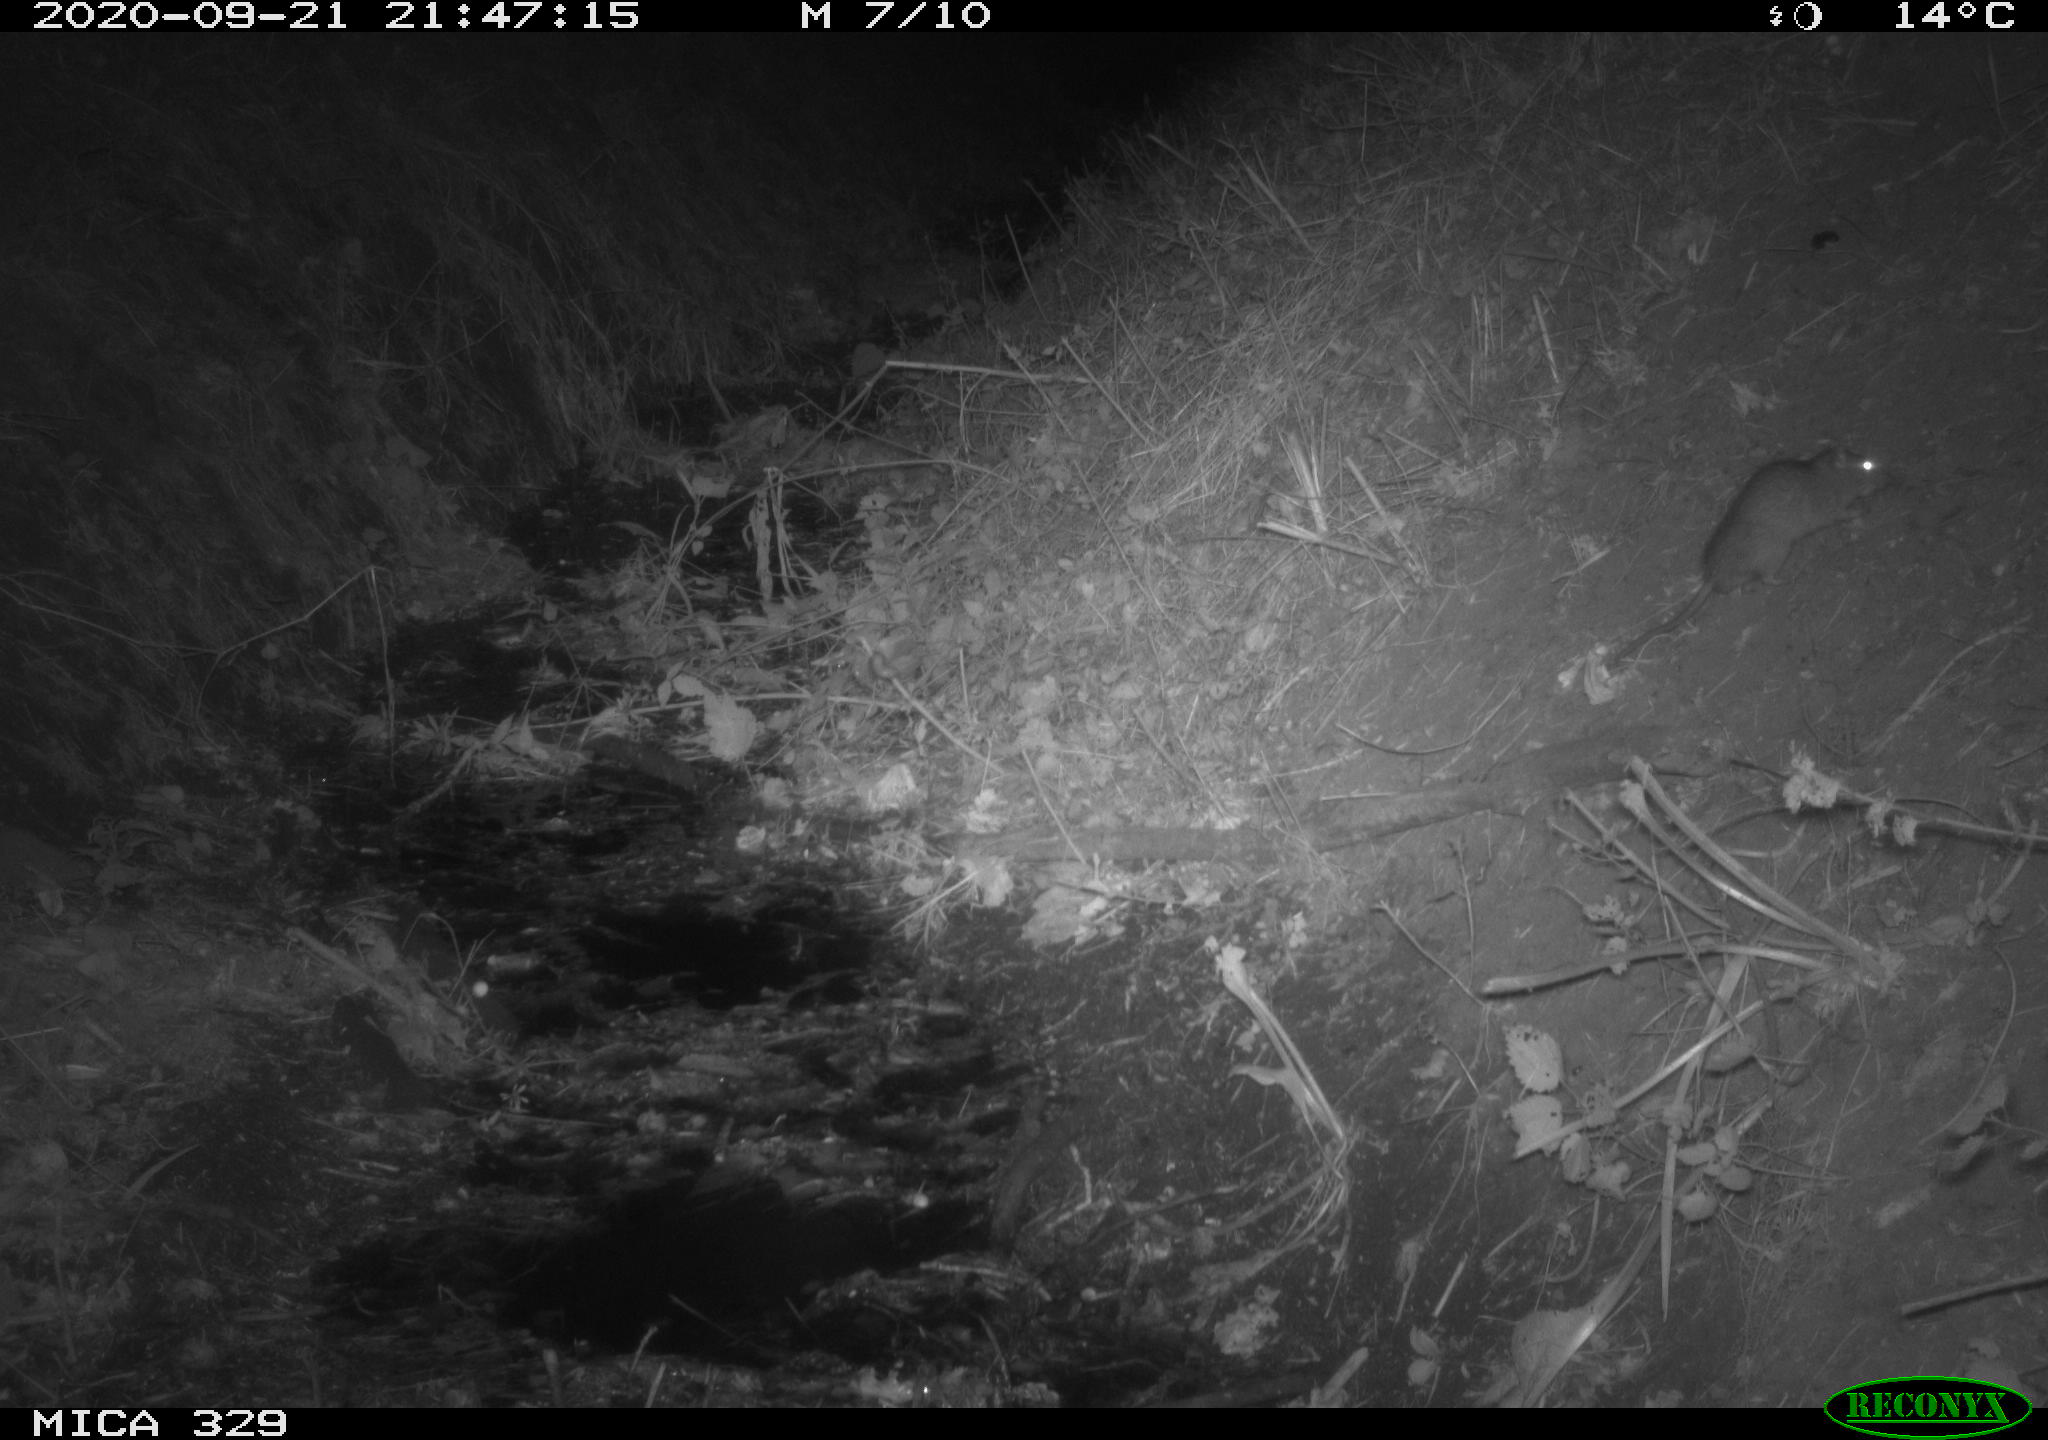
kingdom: Animalia
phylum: Chordata
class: Mammalia
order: Rodentia
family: Muridae
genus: Rattus
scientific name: Rattus norvegicus
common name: Brown rat
